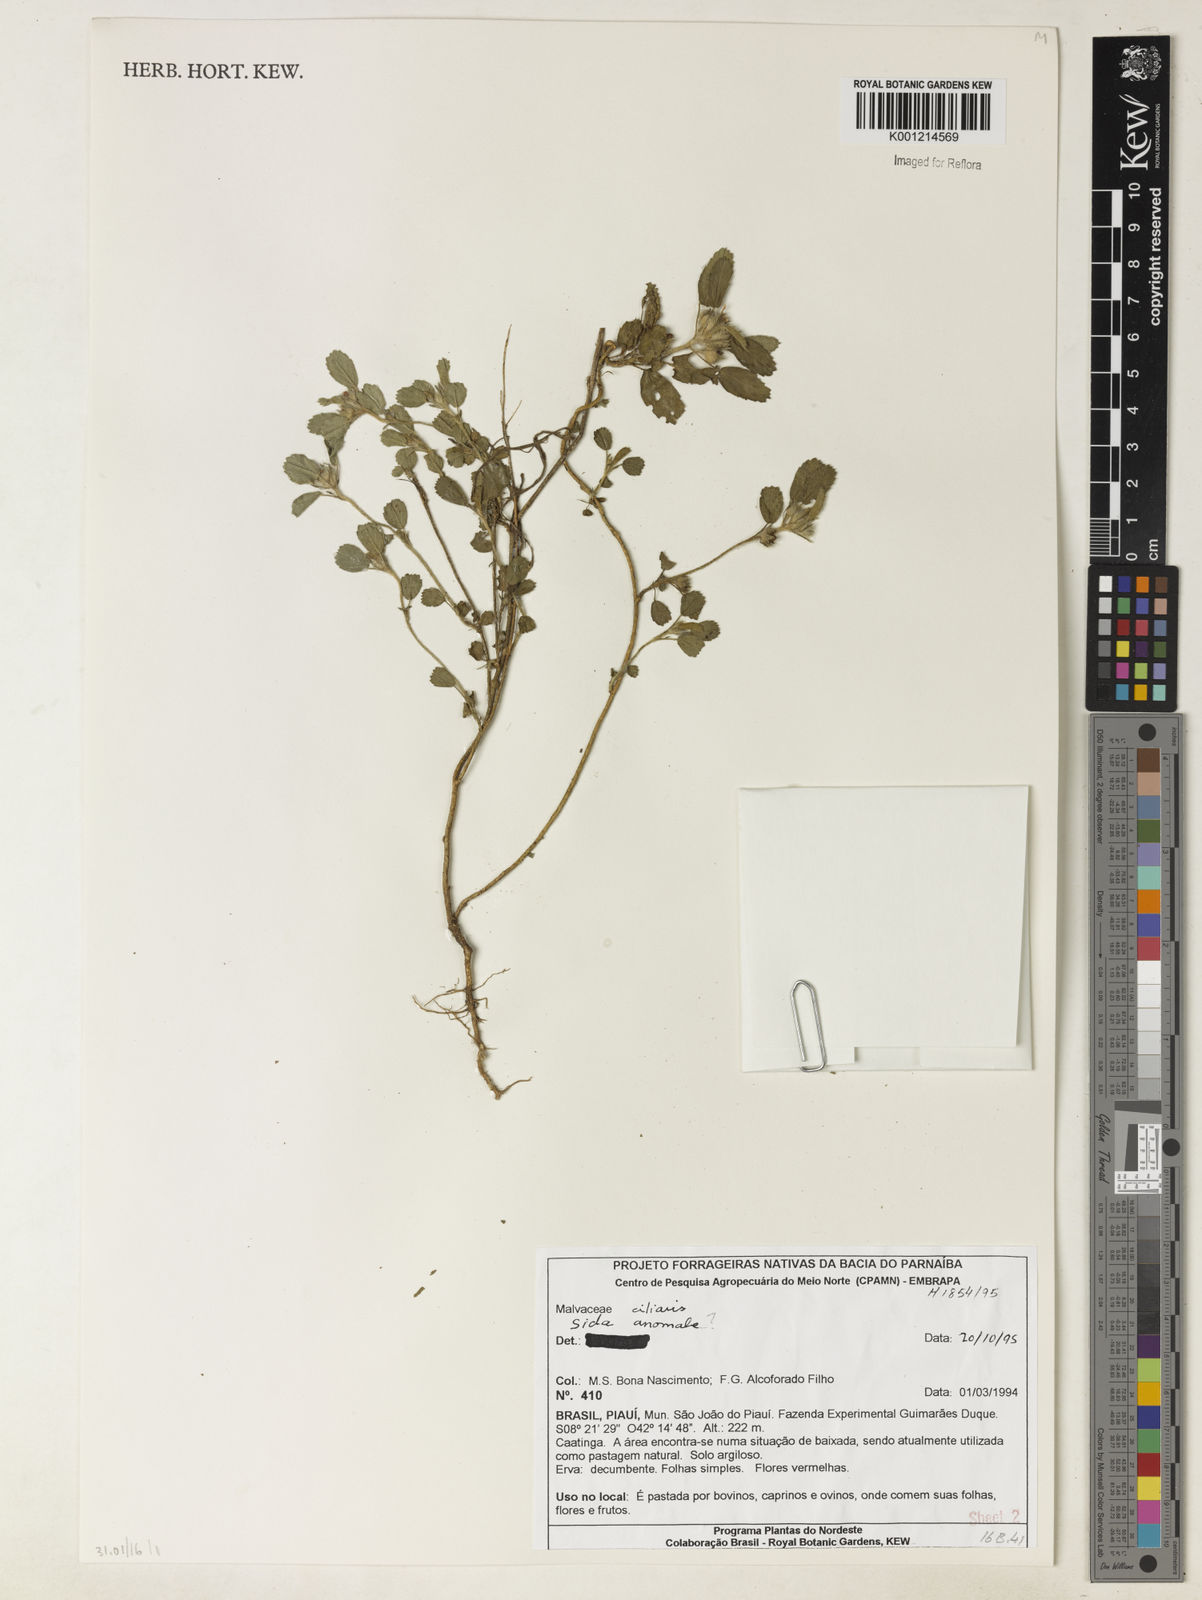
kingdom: Plantae
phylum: Tracheophyta
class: Magnoliopsida
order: Malvales
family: Malvaceae
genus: Sida
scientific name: Sida ciliaris
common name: Bracted fanpetals
